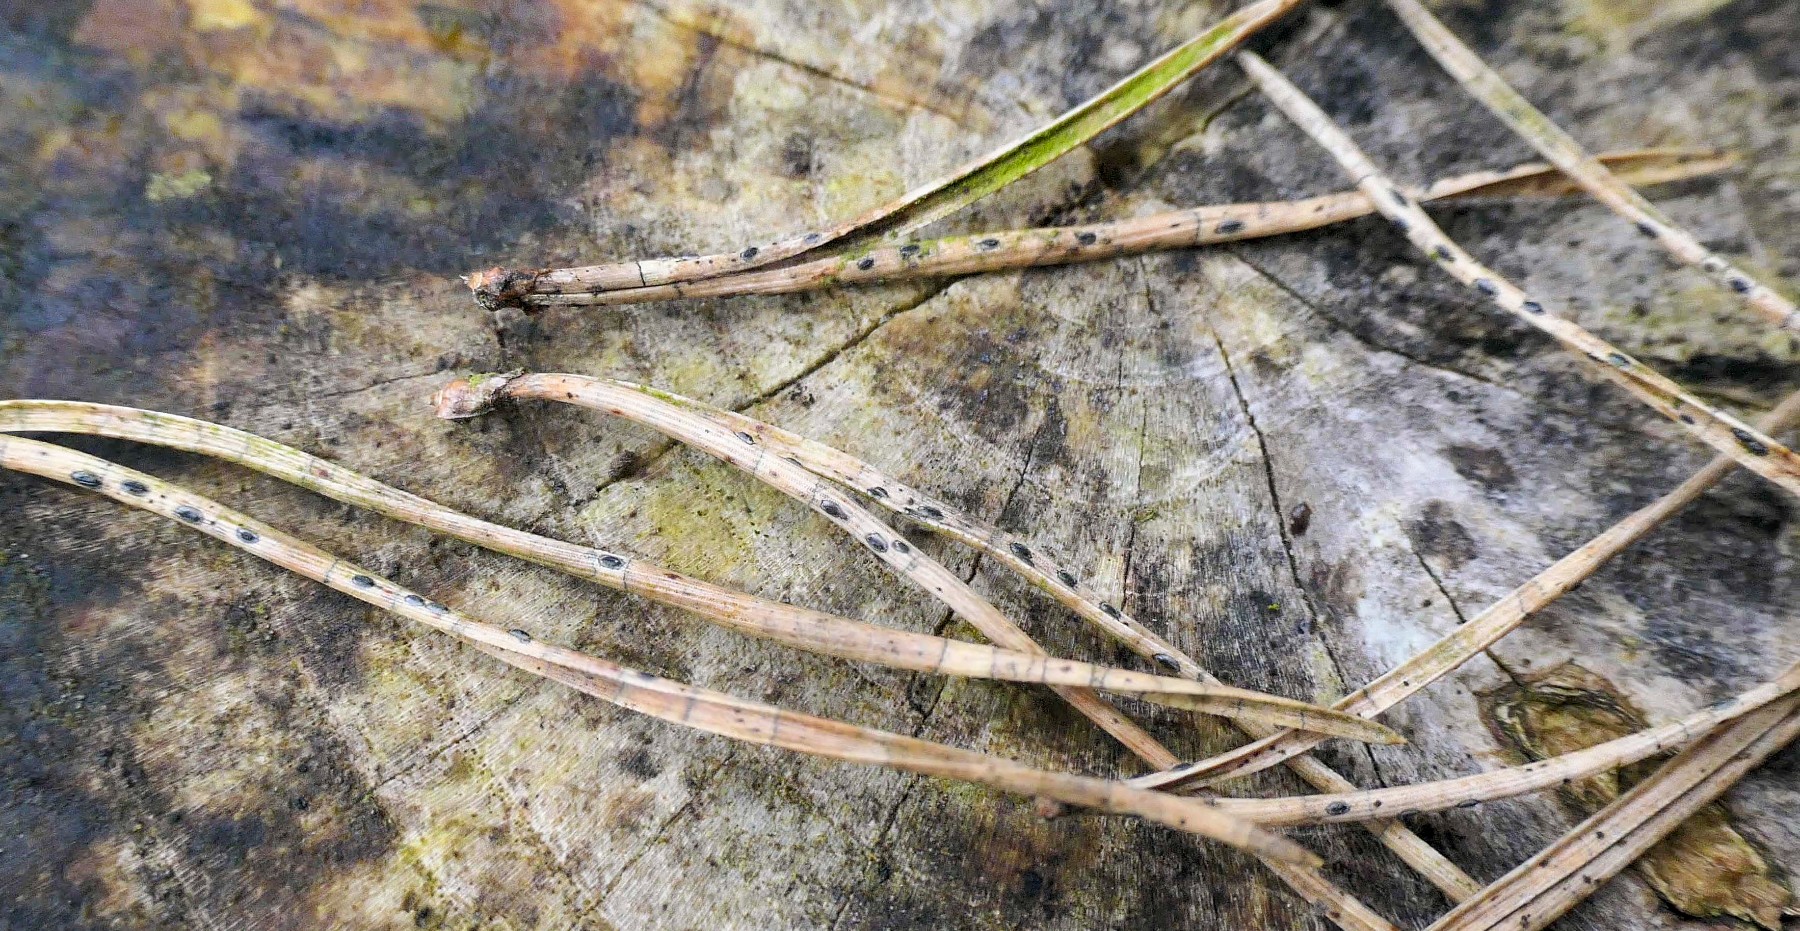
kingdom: Fungi
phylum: Ascomycota
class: Leotiomycetes
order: Rhytismatales
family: Rhytismataceae
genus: Lophodermium
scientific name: Lophodermium pinastri
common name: fyrre-fureplet
